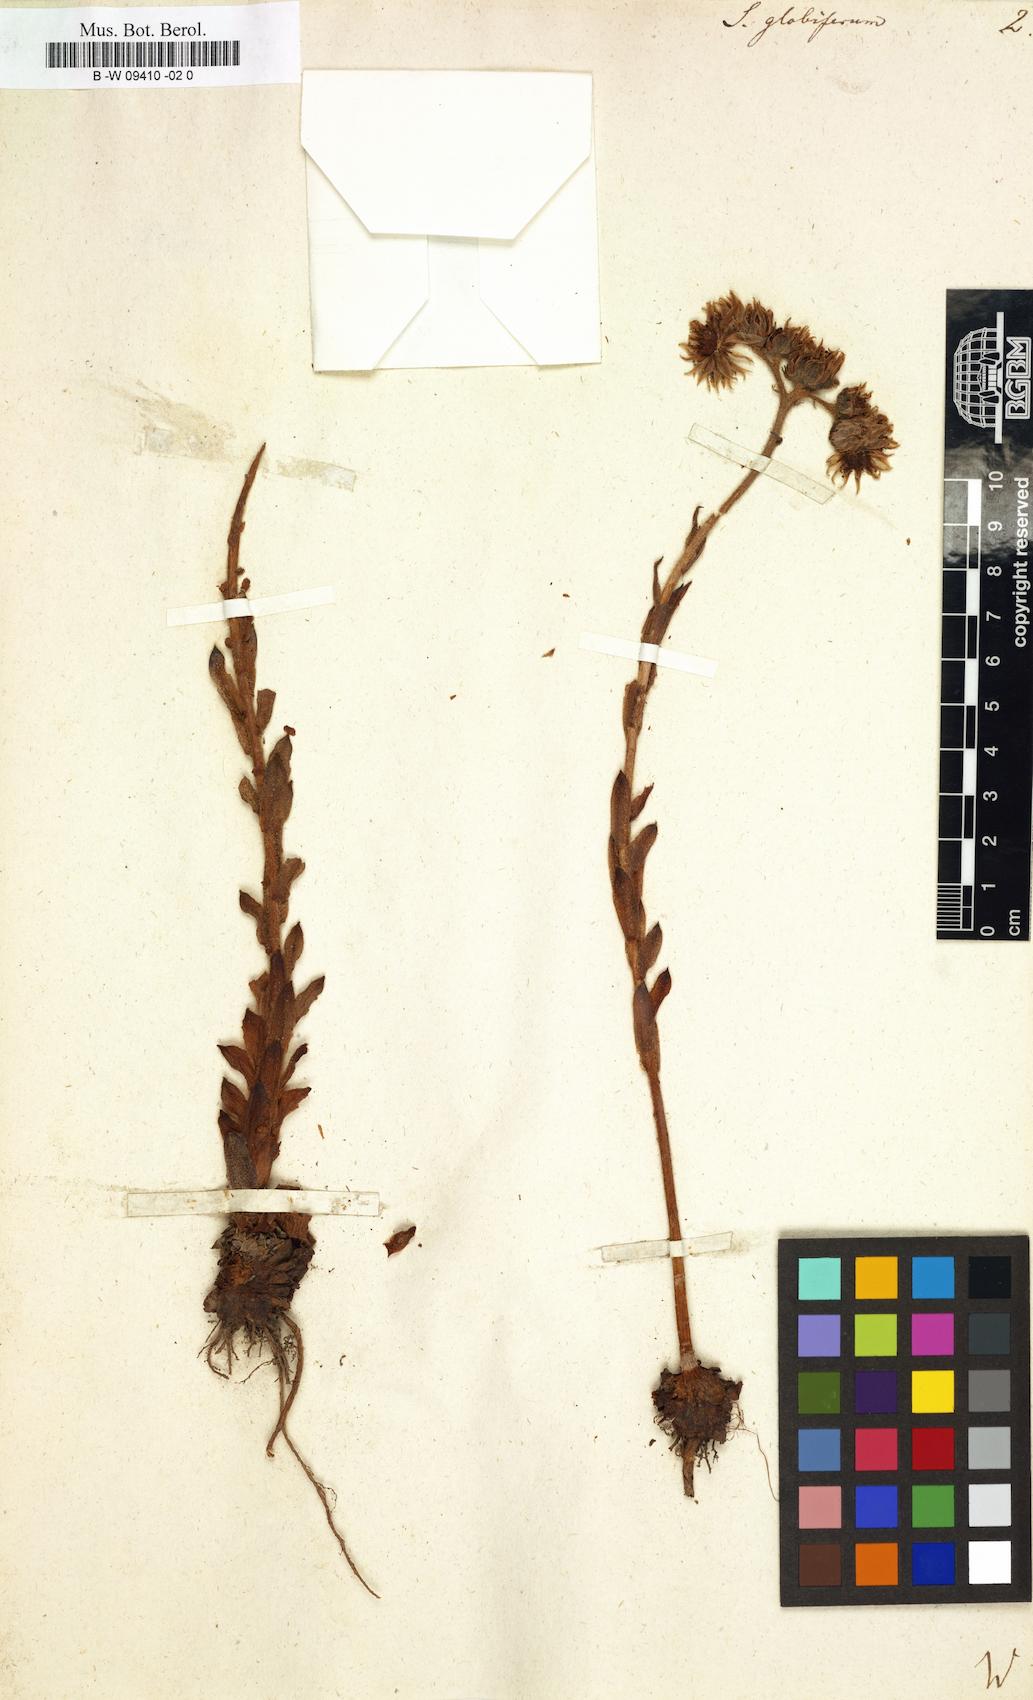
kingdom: Plantae
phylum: Tracheophyta
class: Magnoliopsida
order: Saxifragales
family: Crassulaceae
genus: Sempervivum
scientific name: Sempervivum globiferum
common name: Rolling hen-and-chicks
